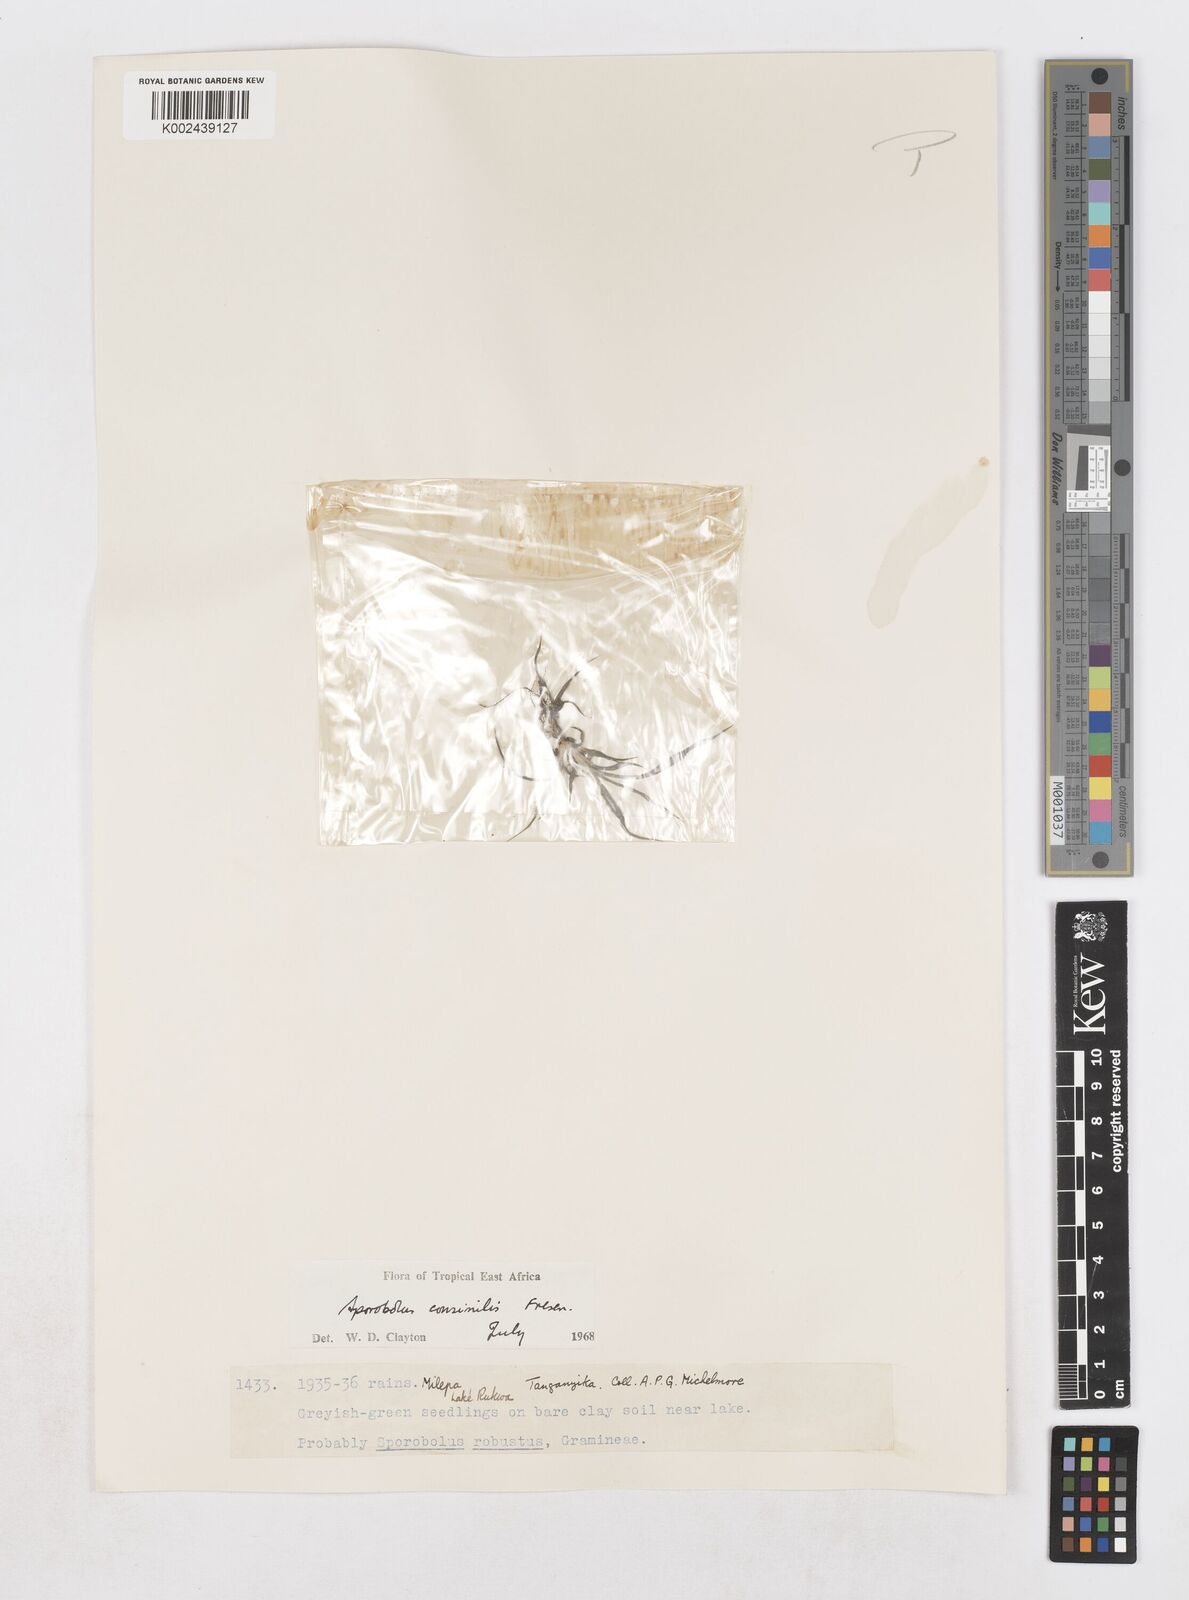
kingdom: Plantae
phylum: Tracheophyta
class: Liliopsida
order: Poales
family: Poaceae
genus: Sporobolus
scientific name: Sporobolus consimilis
